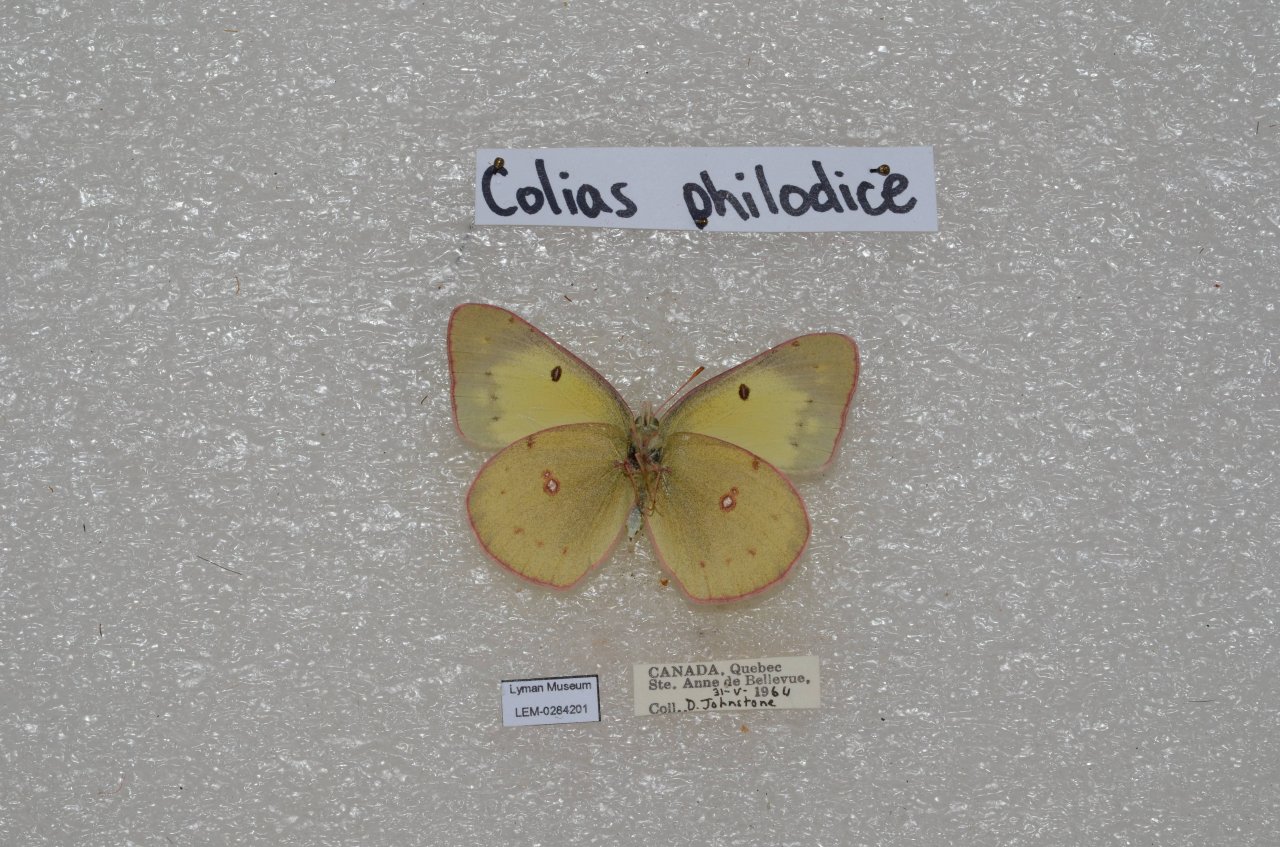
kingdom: Animalia
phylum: Arthropoda
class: Insecta
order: Lepidoptera
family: Pieridae
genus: Colias
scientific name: Colias philodice
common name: Clouded Sulphur
